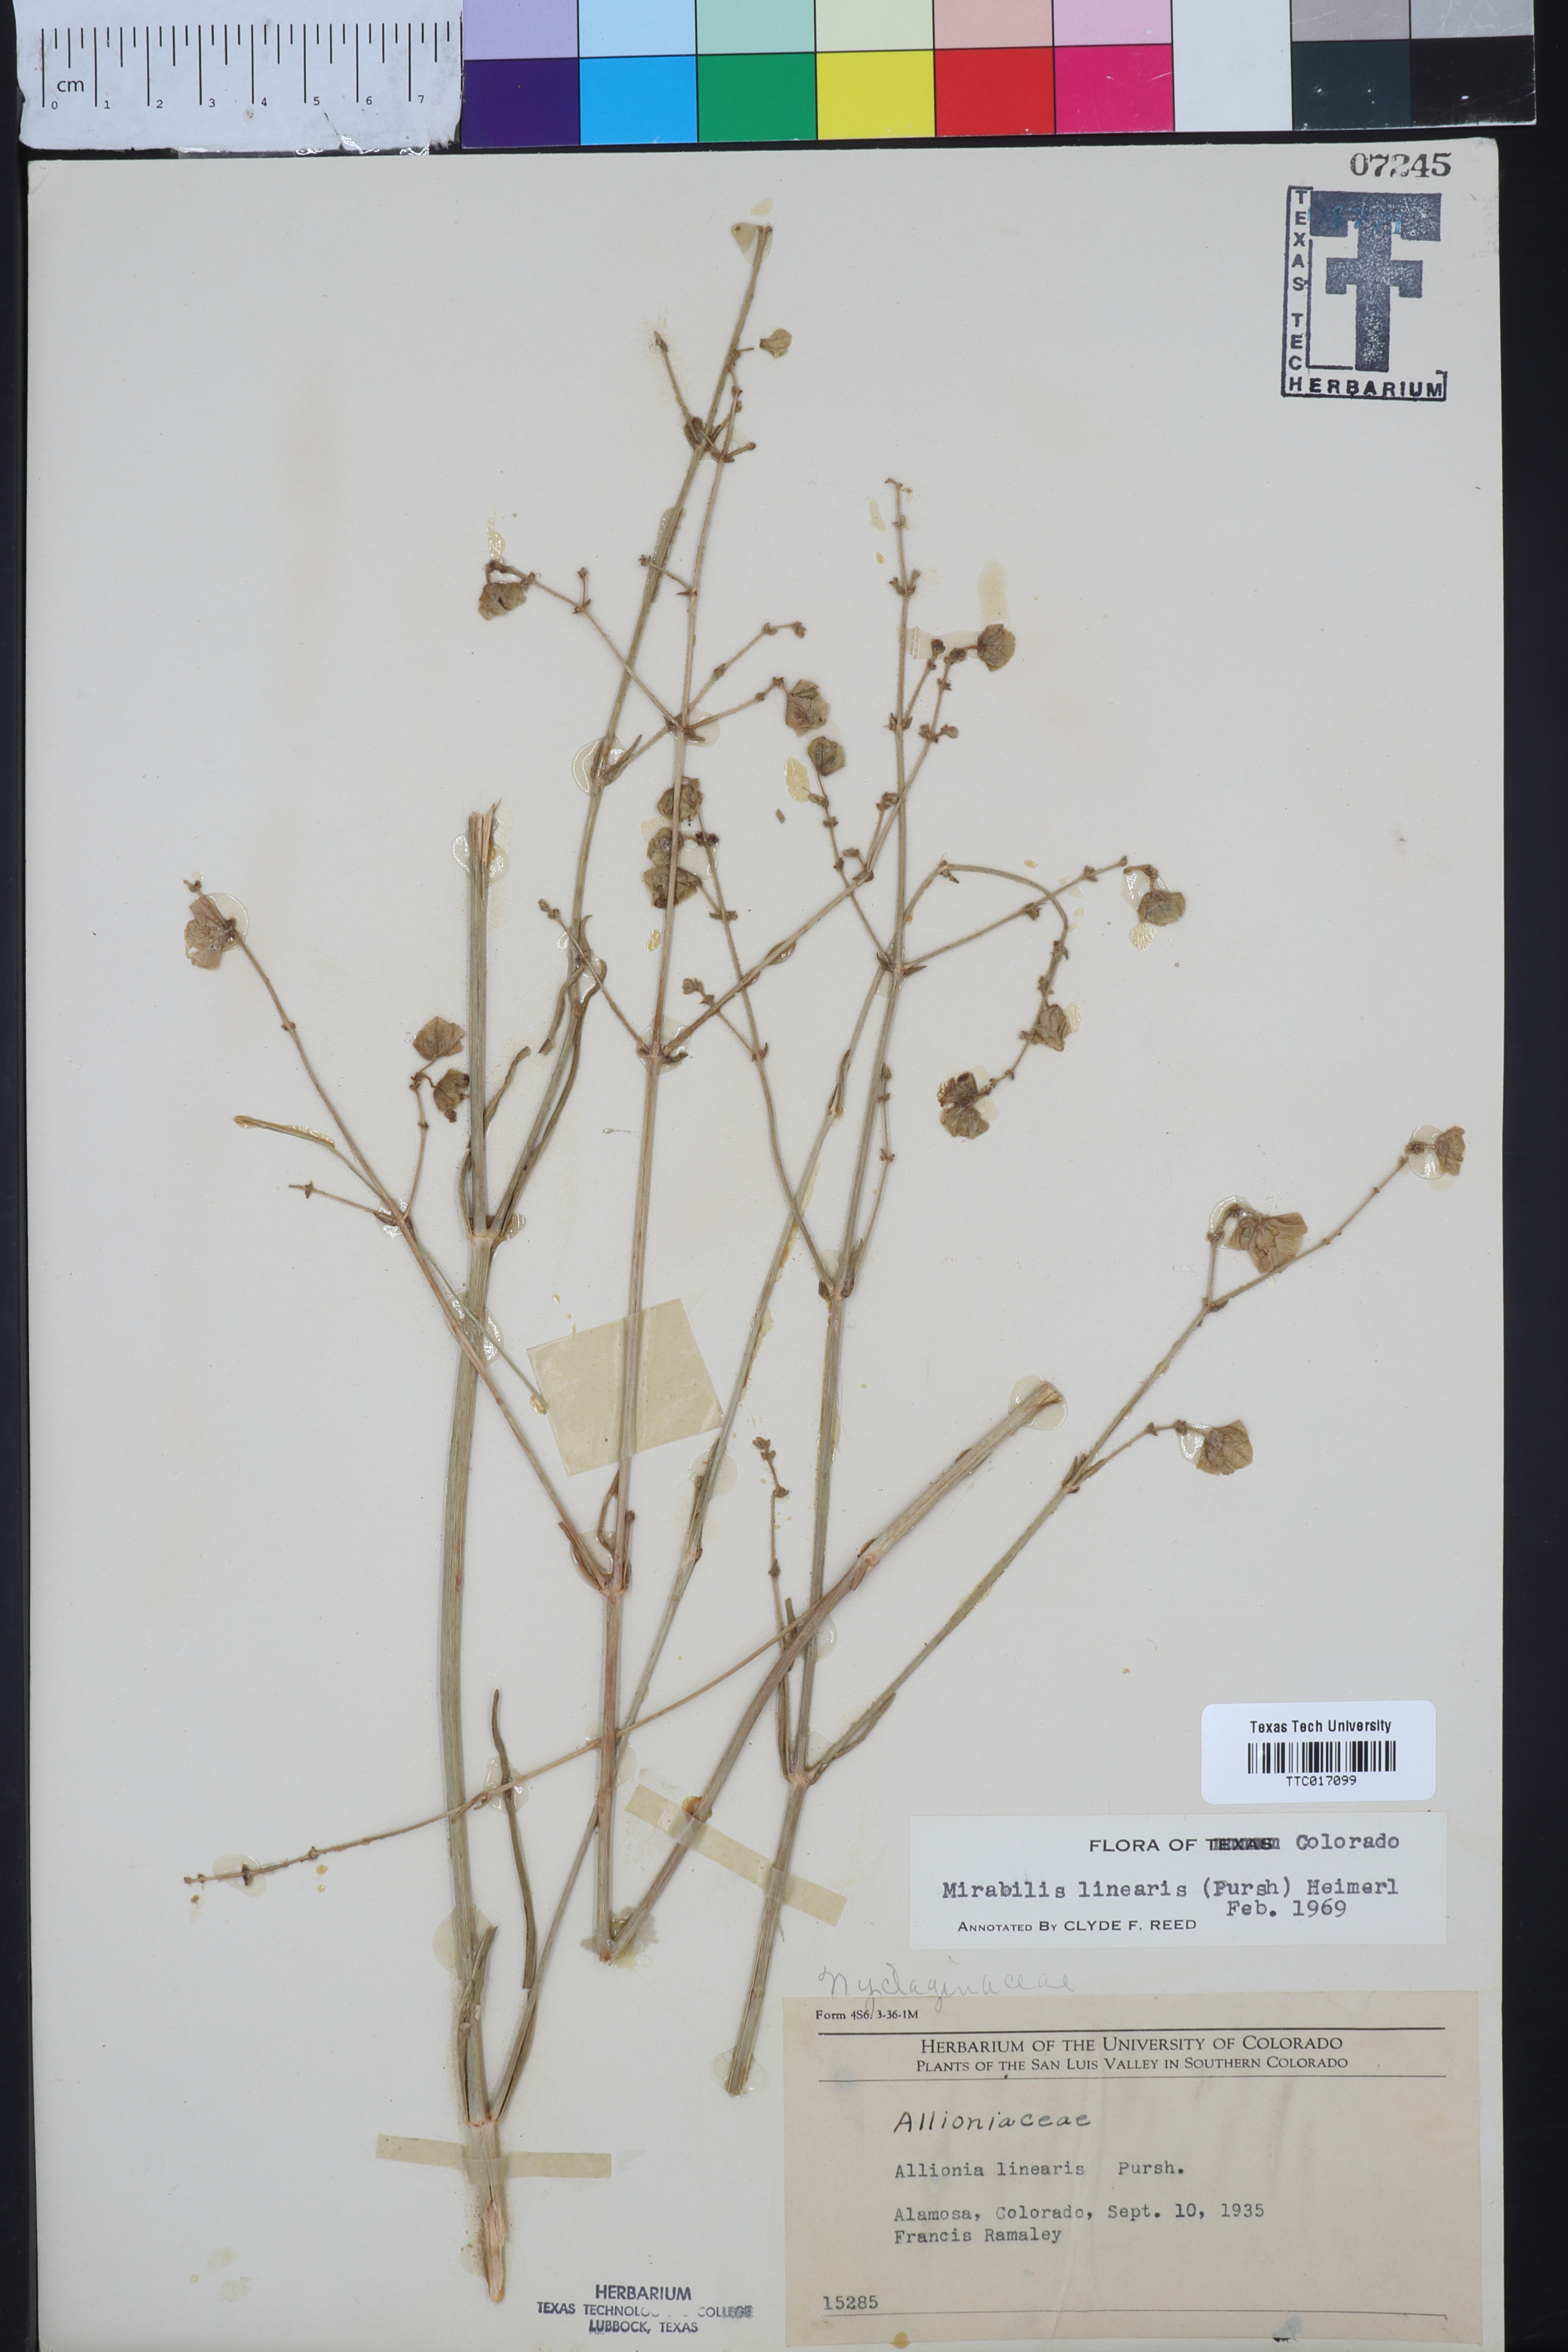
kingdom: Plantae
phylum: Tracheophyta
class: Magnoliopsida
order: Caryophyllales
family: Nyctaginaceae
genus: Mirabilis
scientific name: Mirabilis linearis
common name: Linear-leaved four-o'clock
